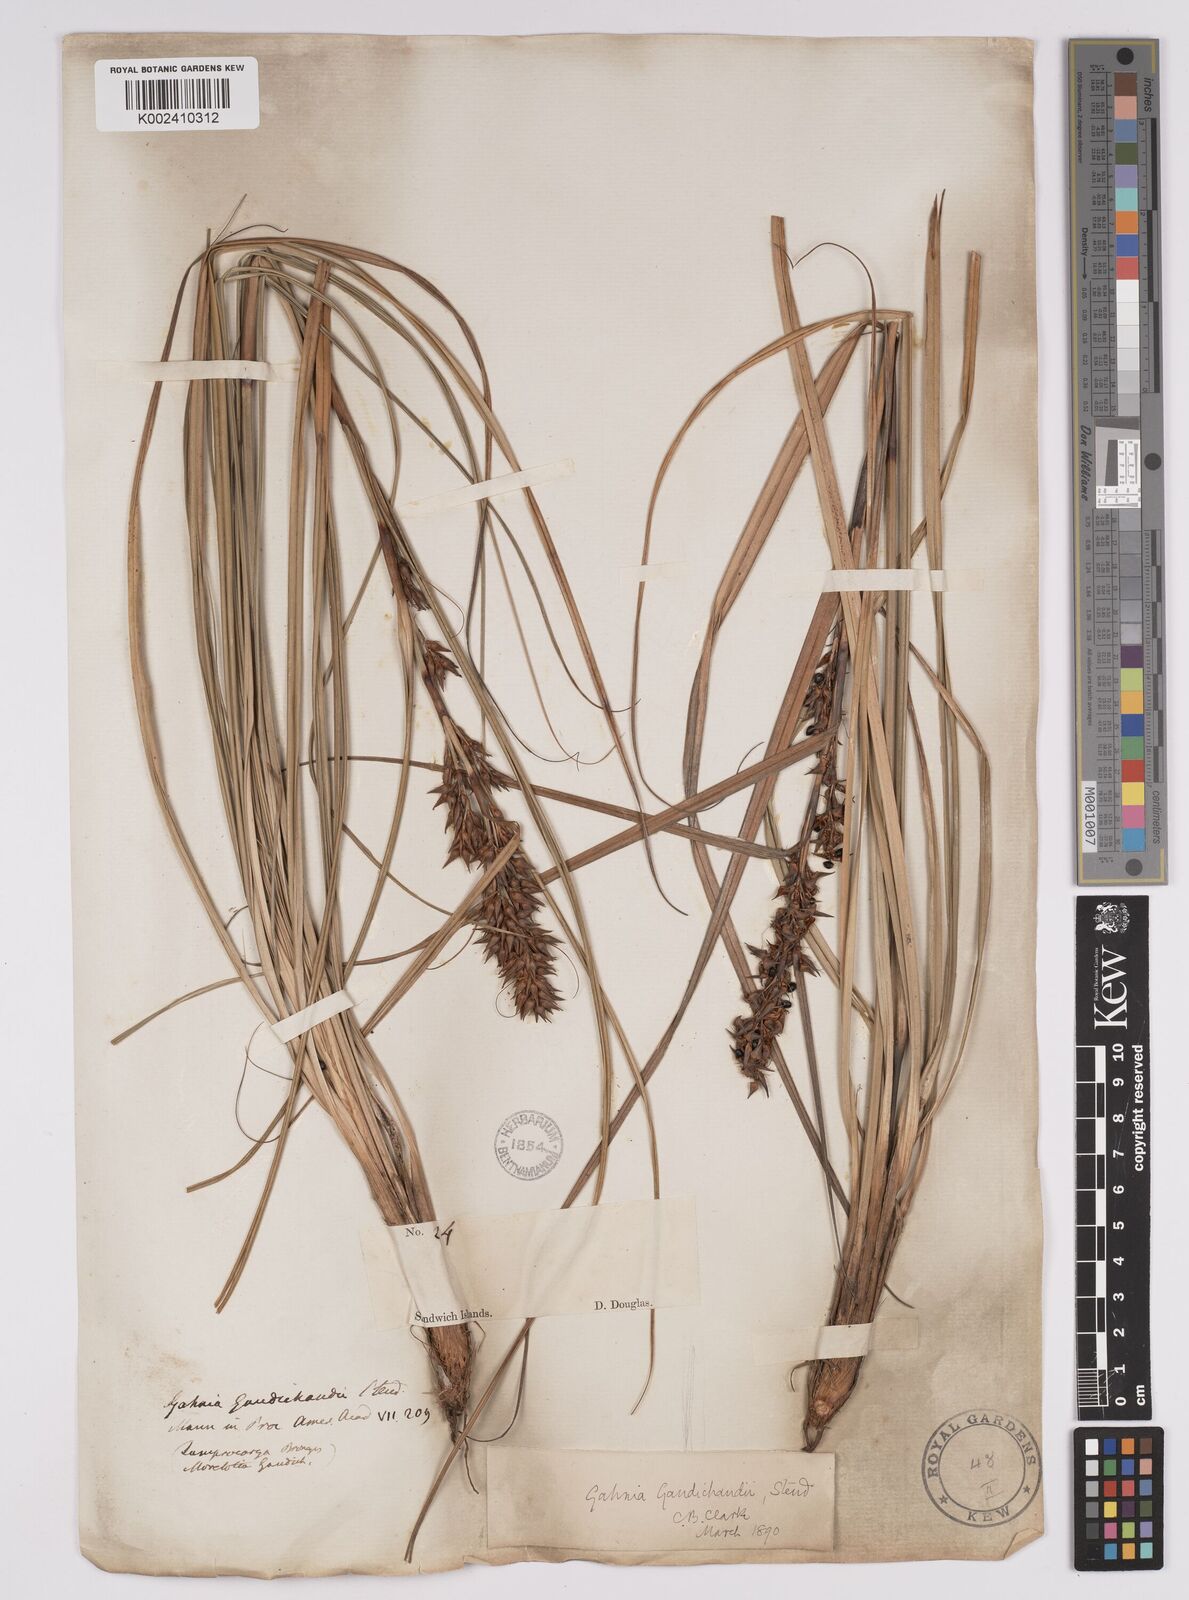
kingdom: Plantae
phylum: Tracheophyta
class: Liliopsida
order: Poales
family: Cyperaceae
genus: Morelotia
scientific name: Morelotia gahniiformis
